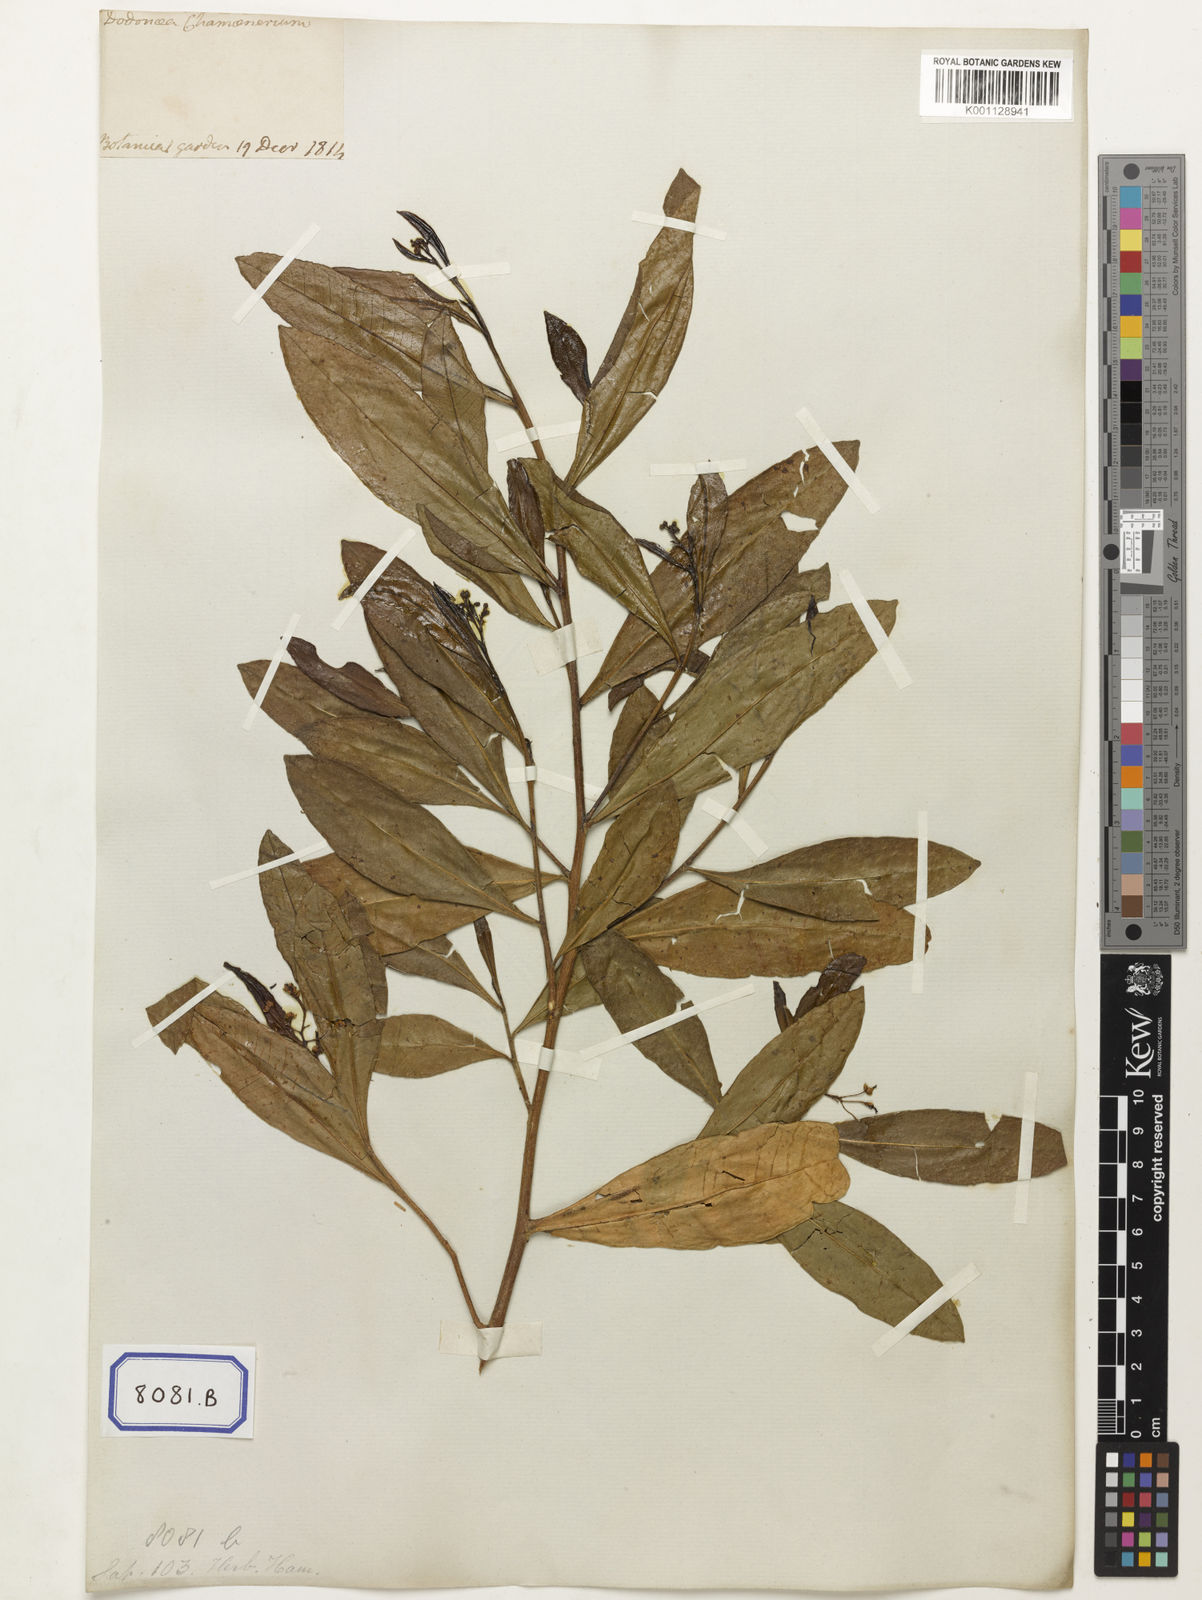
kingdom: Plantae
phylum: Tracheophyta
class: Magnoliopsida
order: Sapindales
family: Sapindaceae
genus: Dodonaea
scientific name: Dodonaea
